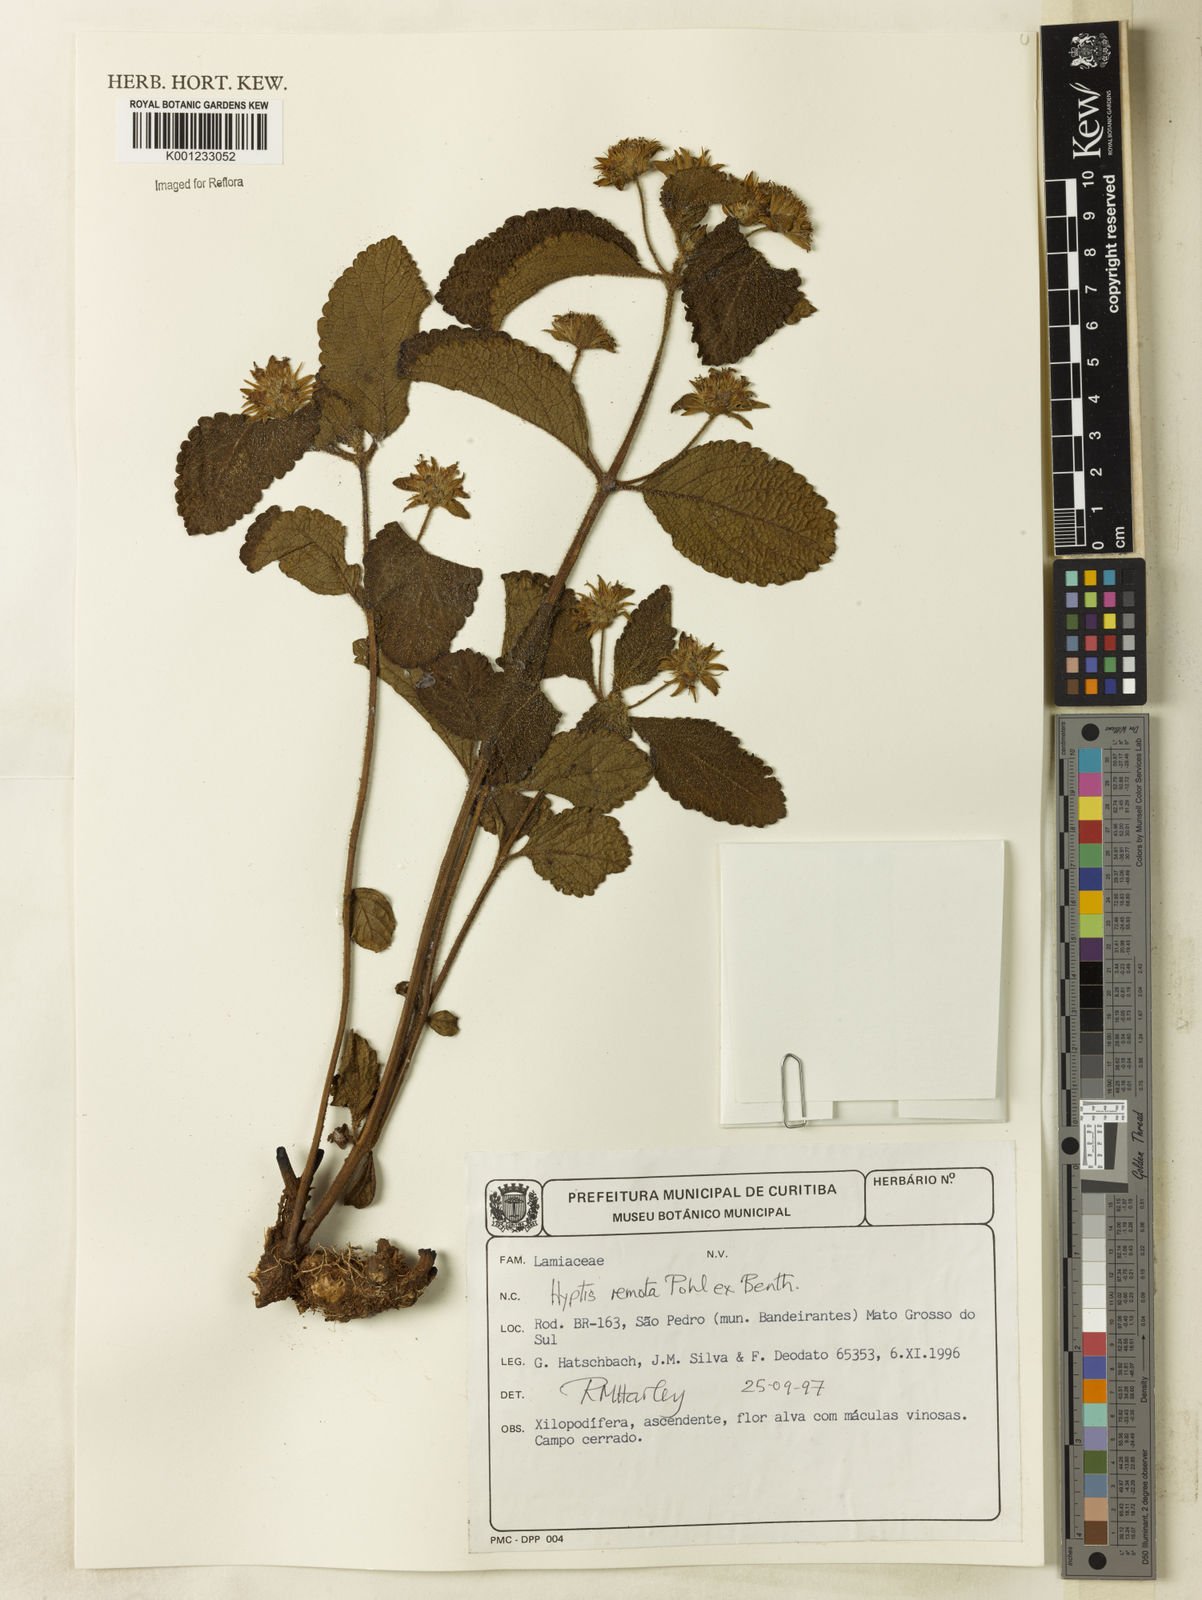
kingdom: Plantae
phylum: Tracheophyta
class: Magnoliopsida
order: Lamiales
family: Lamiaceae
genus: Hyptis
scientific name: Hyptis remota
